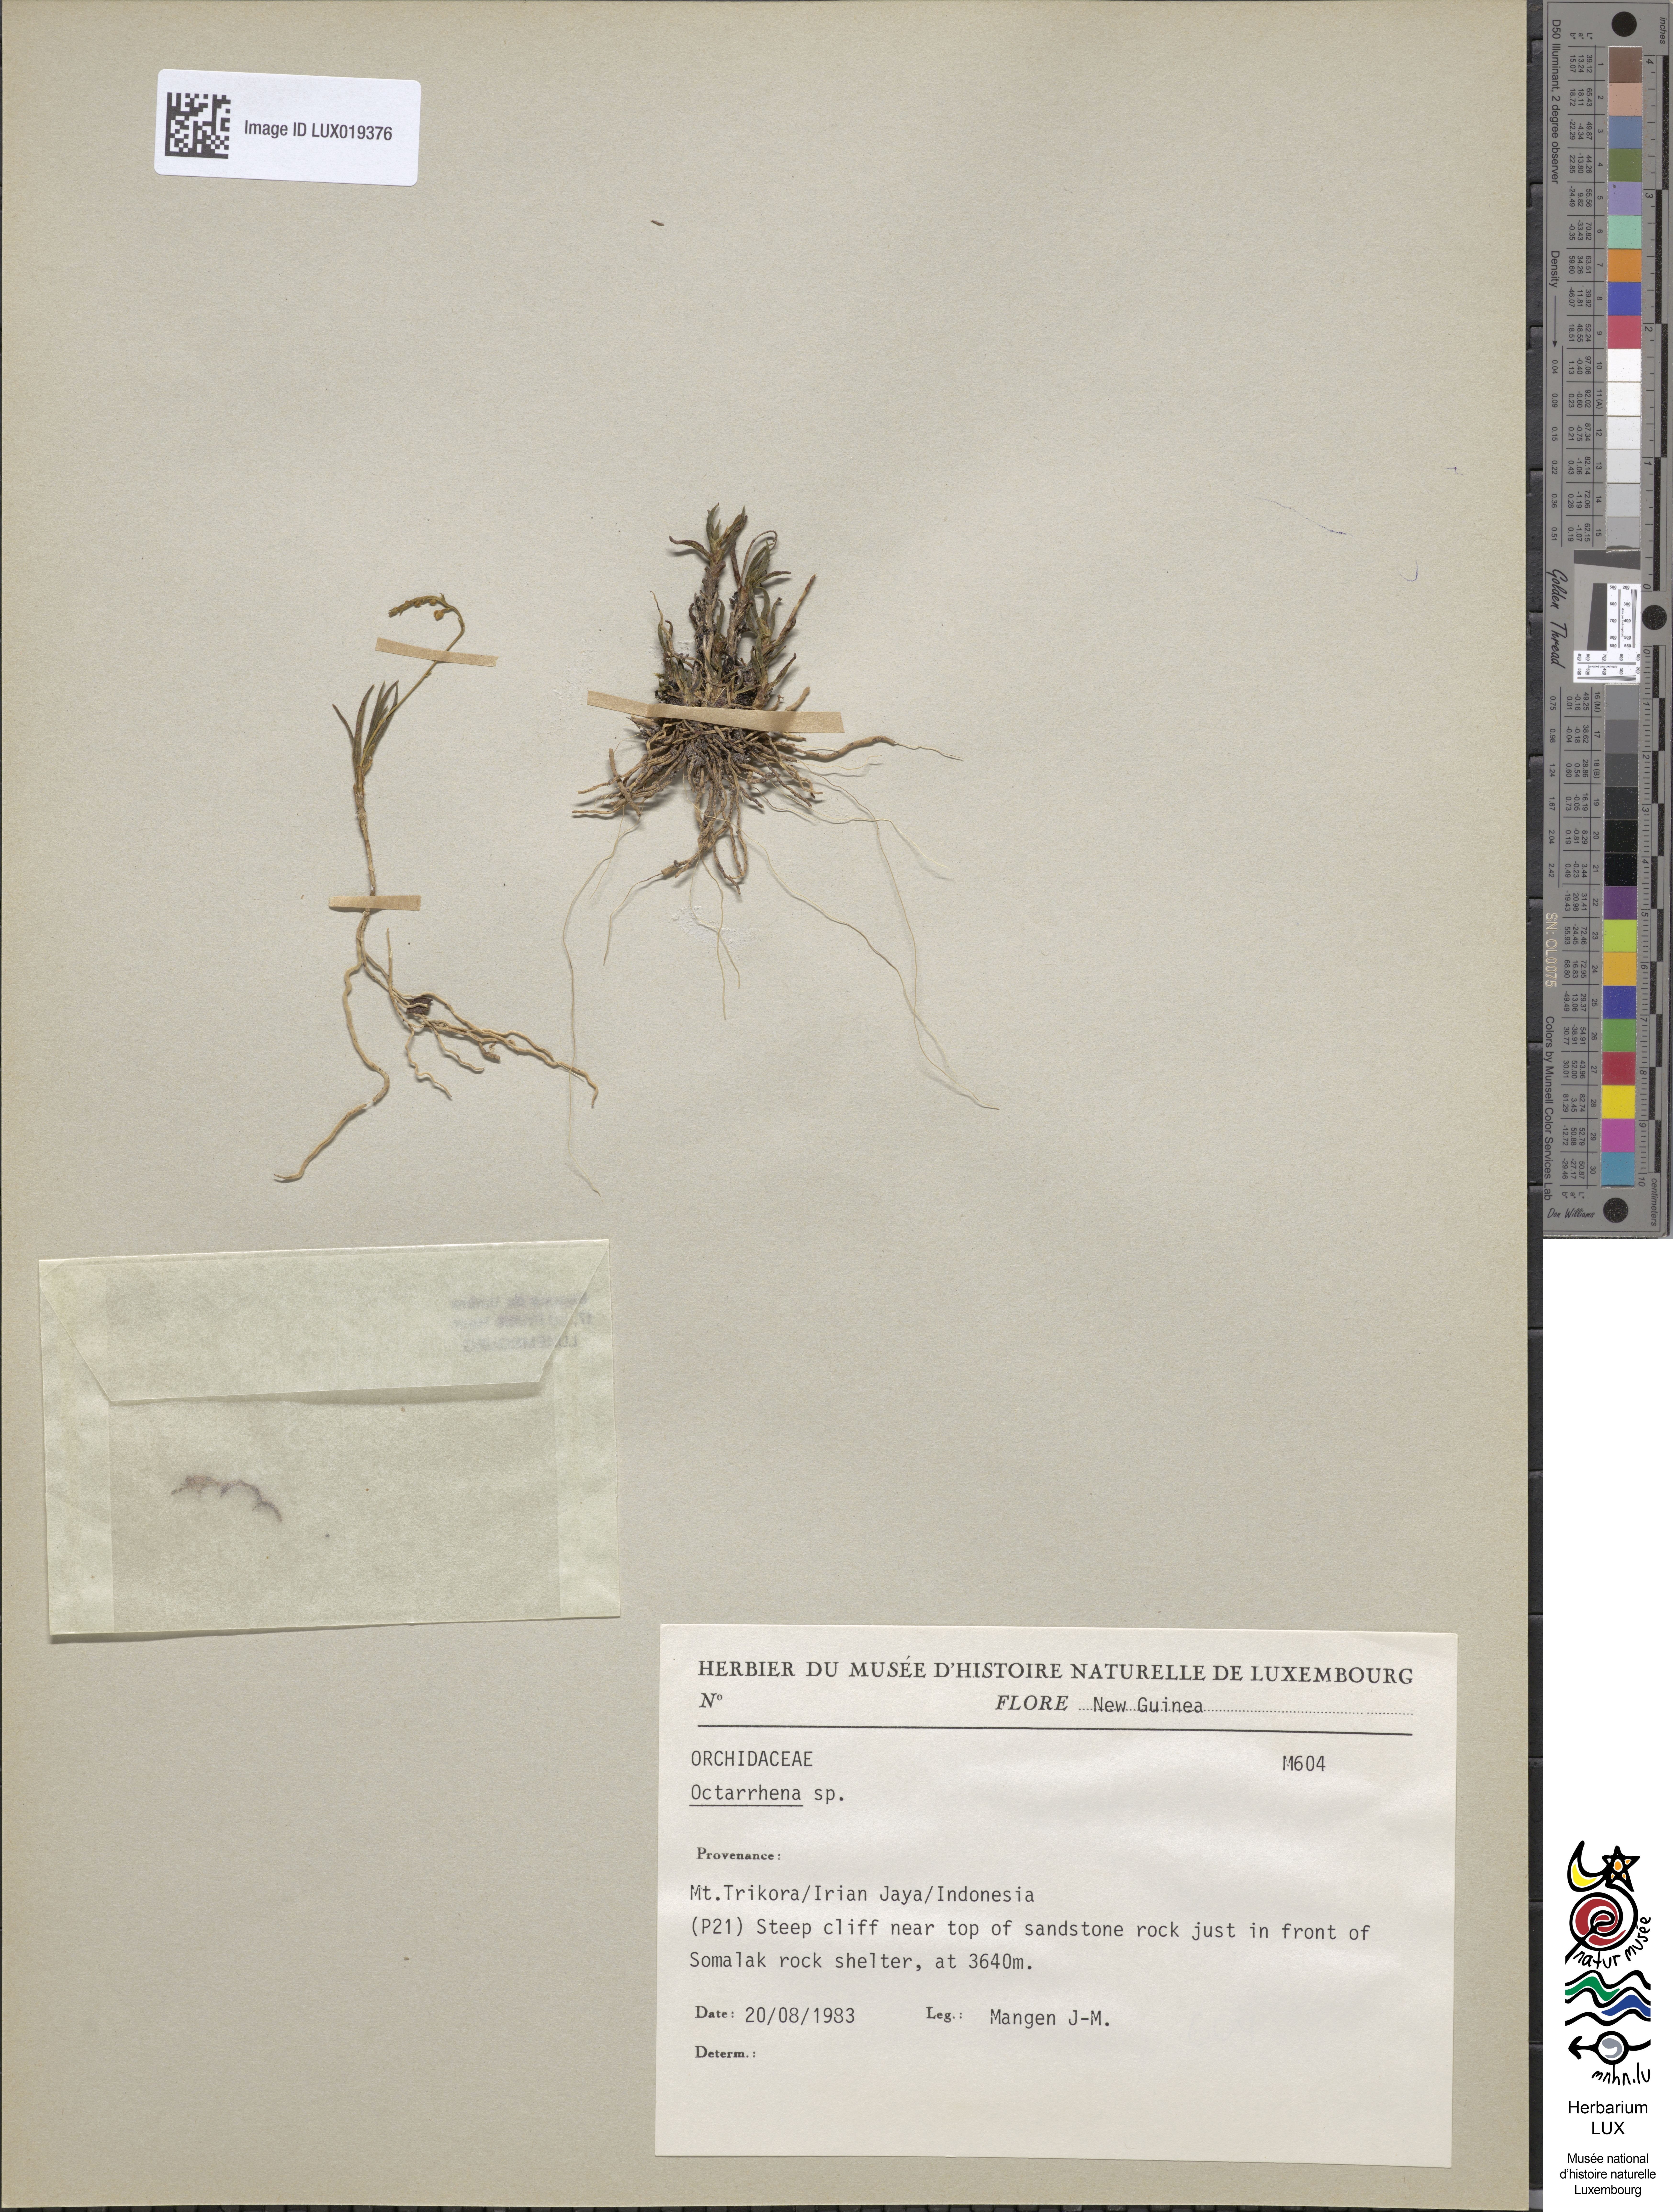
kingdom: Plantae
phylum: Tracheophyta
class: Liliopsida
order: Asparagales
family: Orchidaceae
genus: Octarrhena
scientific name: Octarrhena
